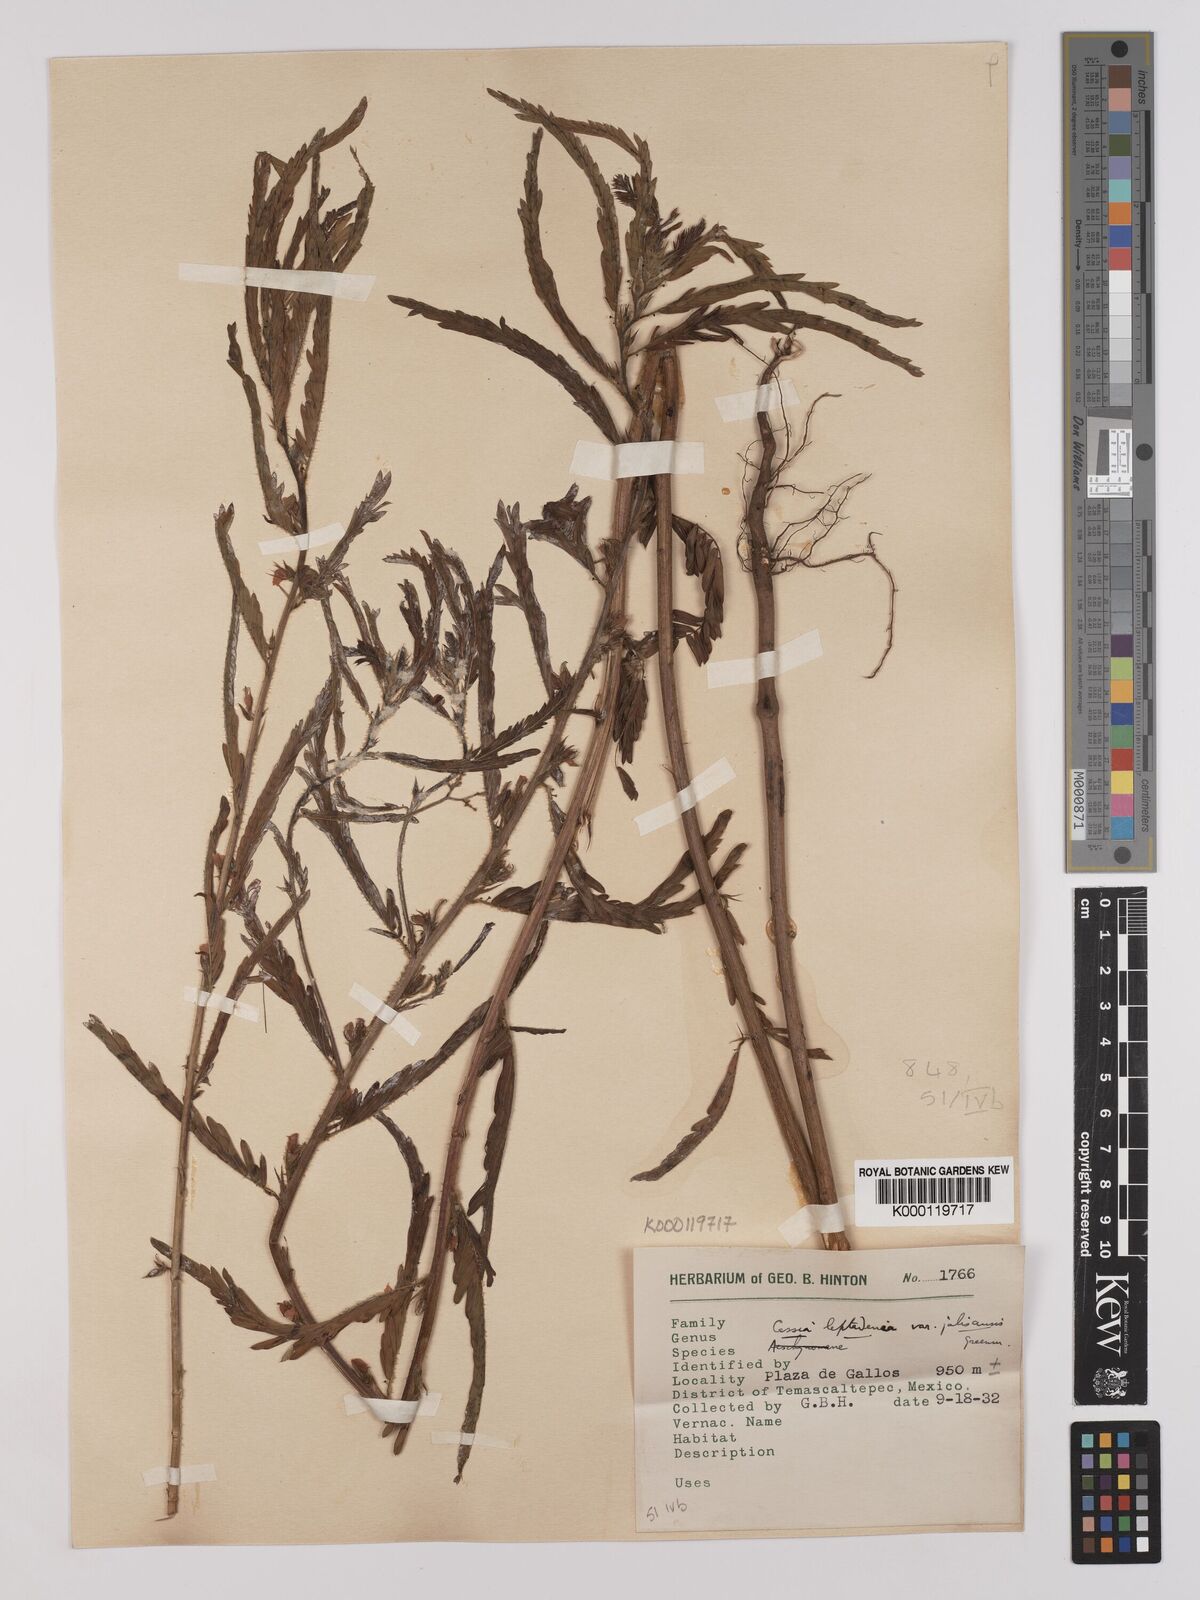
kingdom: Plantae
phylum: Tracheophyta
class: Magnoliopsida
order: Fabales
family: Fabaceae
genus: Chamaecrista
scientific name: Chamaecrista nictitans
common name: Sensitive cassia
